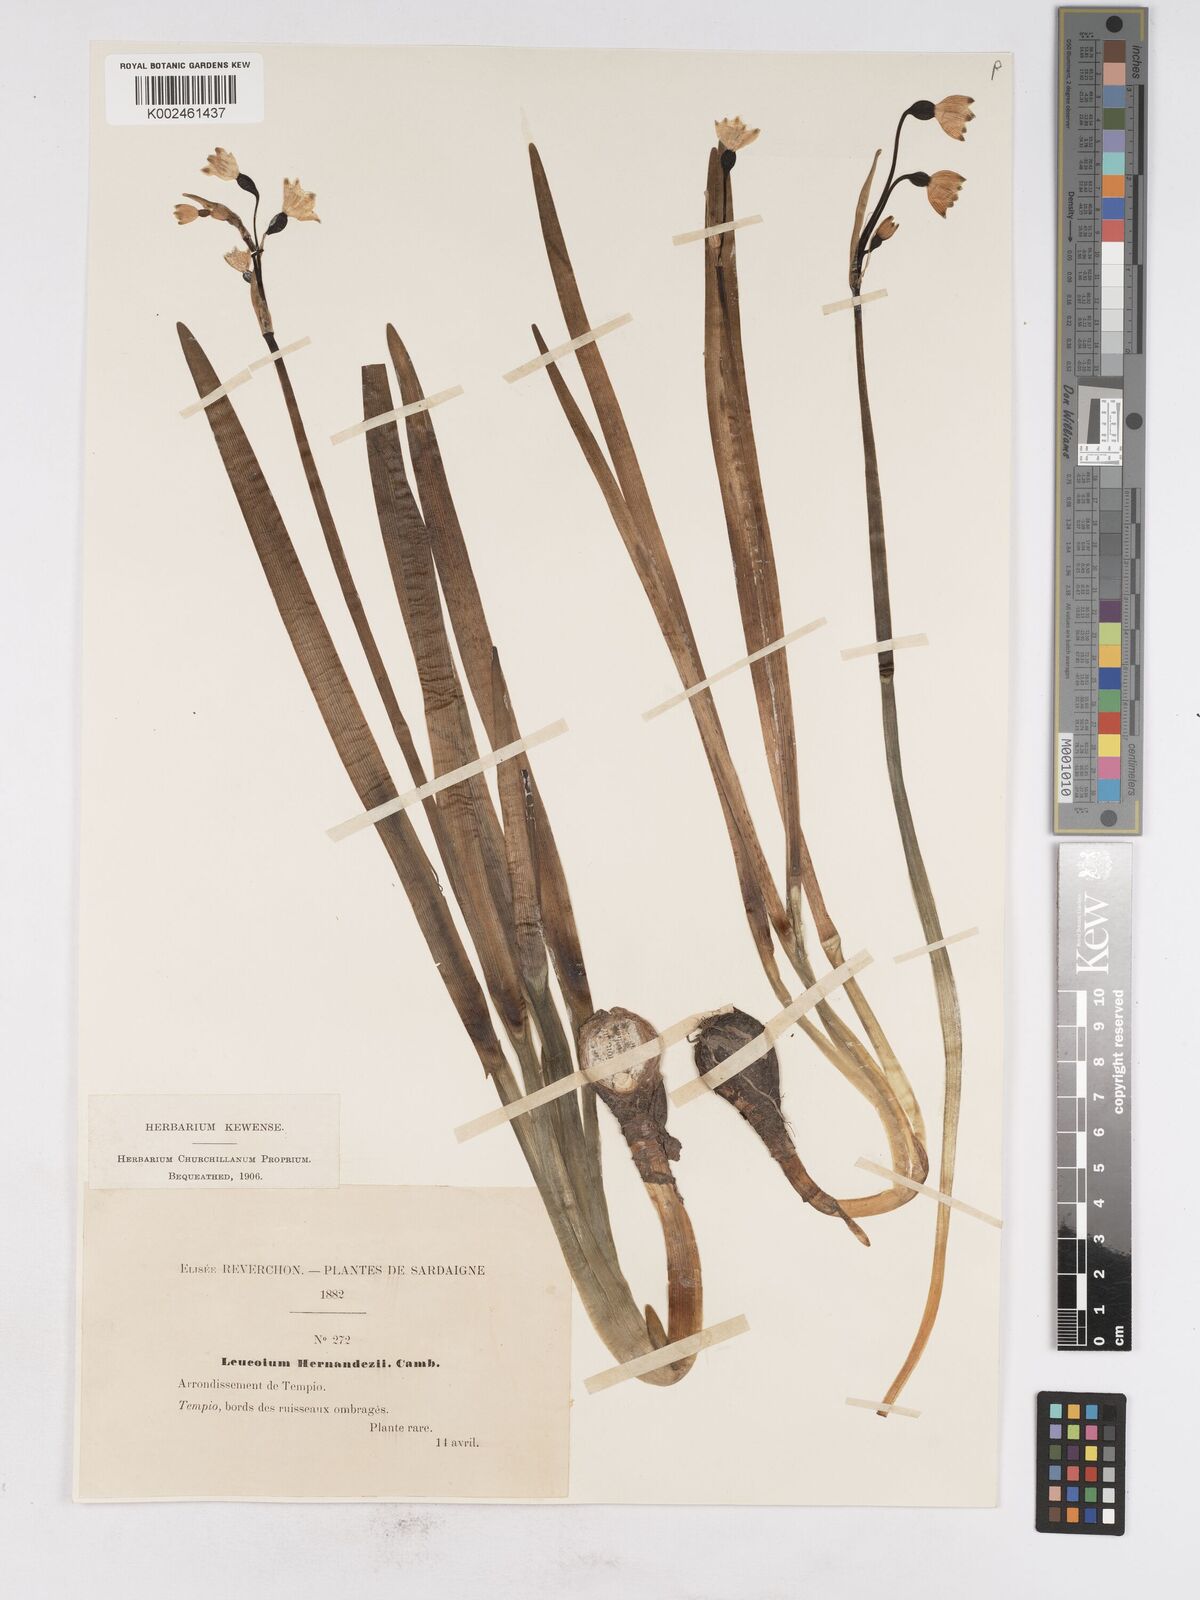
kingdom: Plantae
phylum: Tracheophyta
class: Liliopsida
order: Asparagales
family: Amaryllidaceae
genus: Leucojum
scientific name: Leucojum aestivum
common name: Summer snowflake
